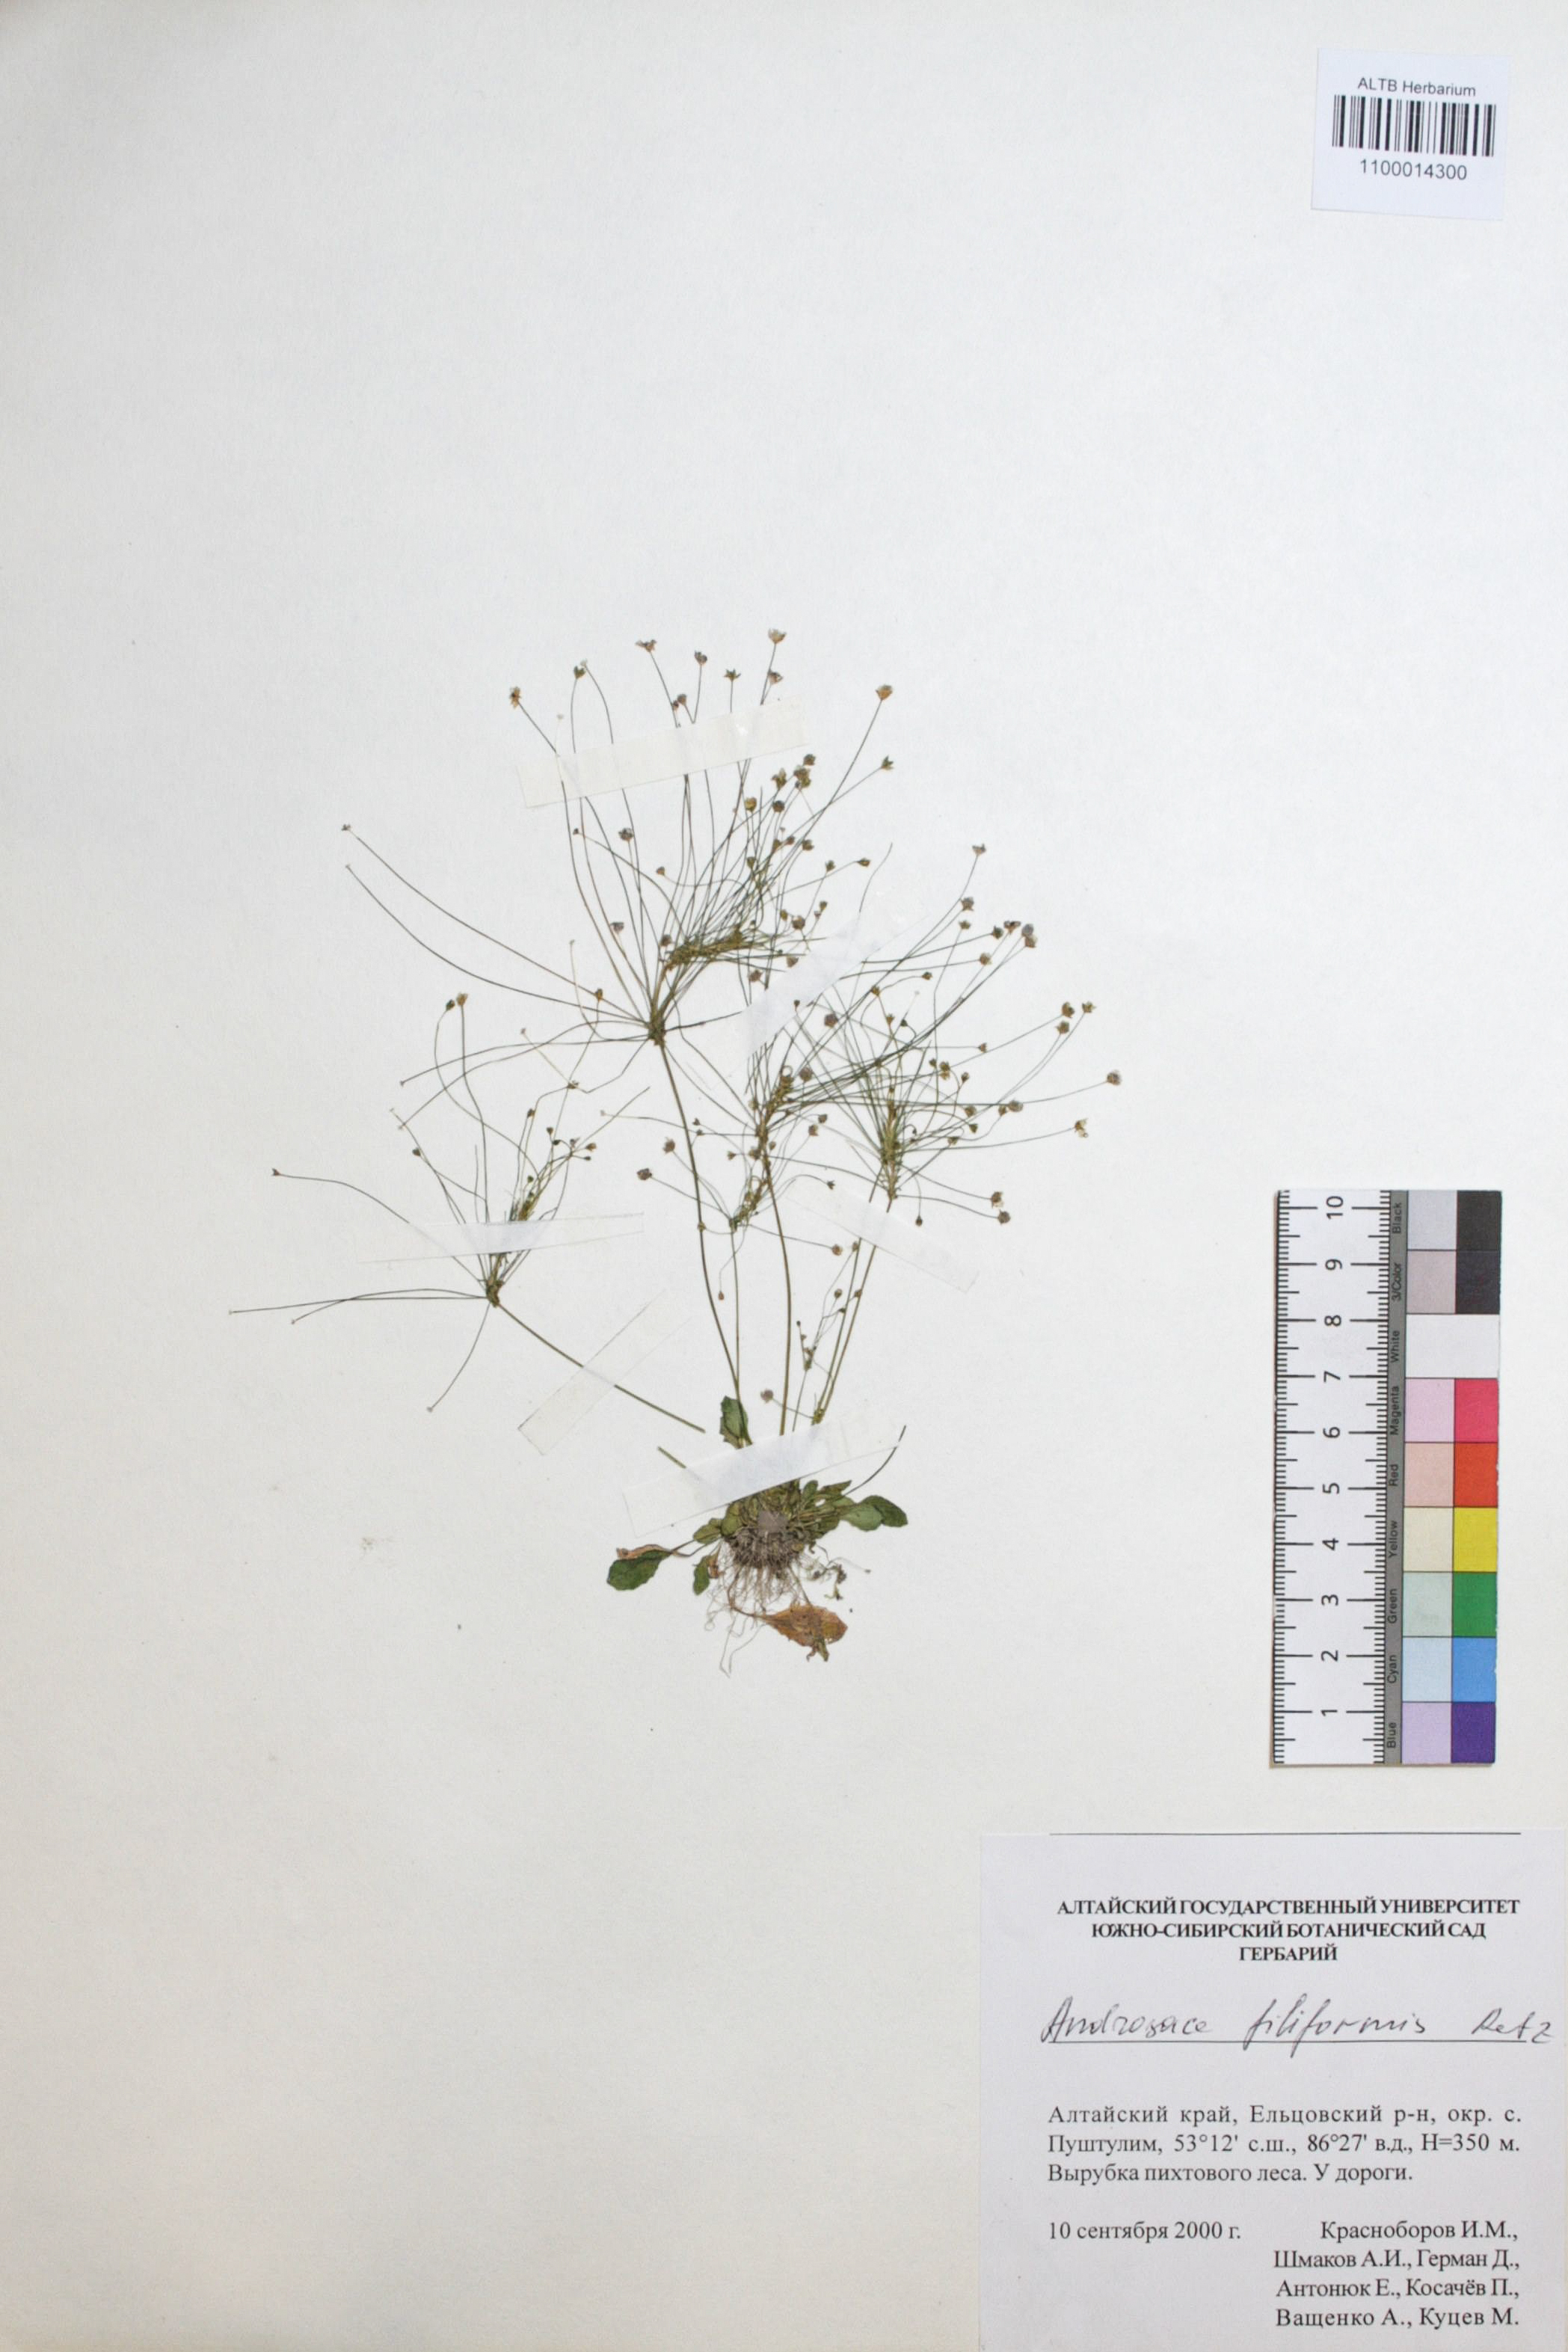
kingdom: Plantae
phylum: Tracheophyta
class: Magnoliopsida
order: Ericales
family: Primulaceae
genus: Androsace
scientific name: Androsace filiformis
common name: Filiform rock jasmine
